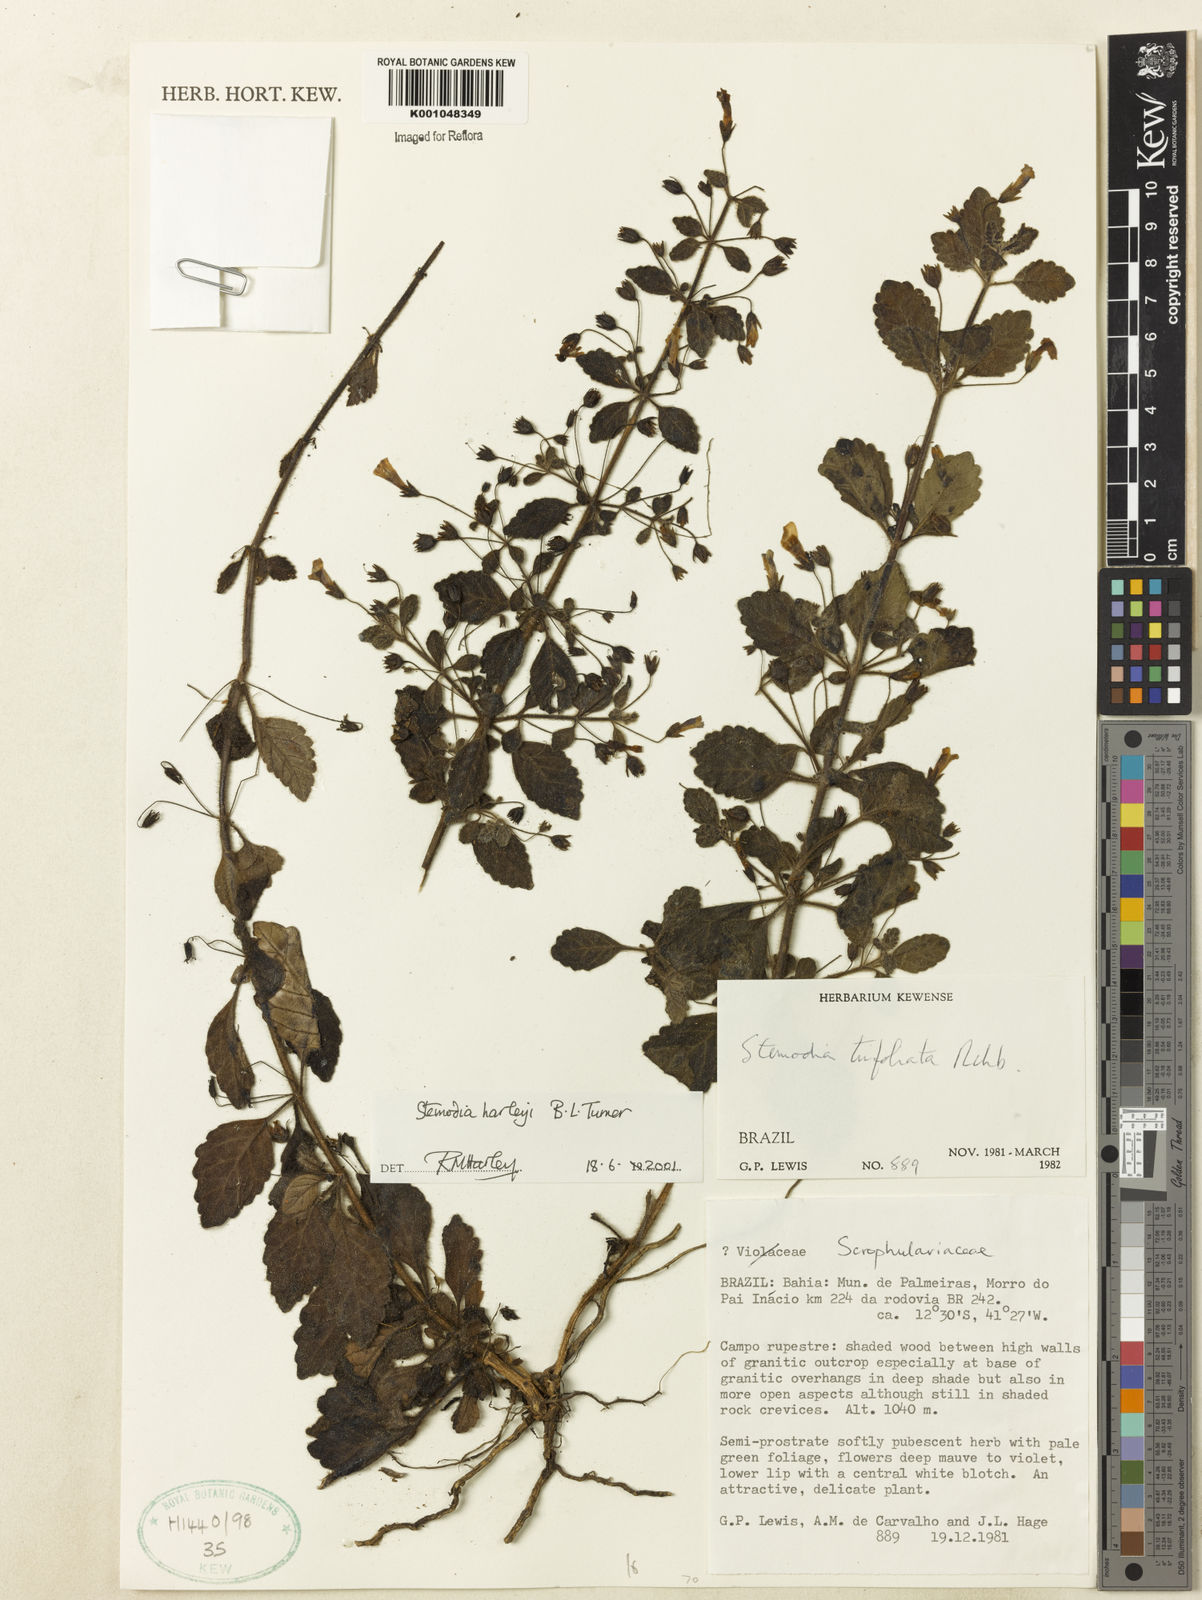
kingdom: Plantae
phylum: Tracheophyta
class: Magnoliopsida
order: Lamiales
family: Plantaginaceae
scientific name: Plantaginaceae
